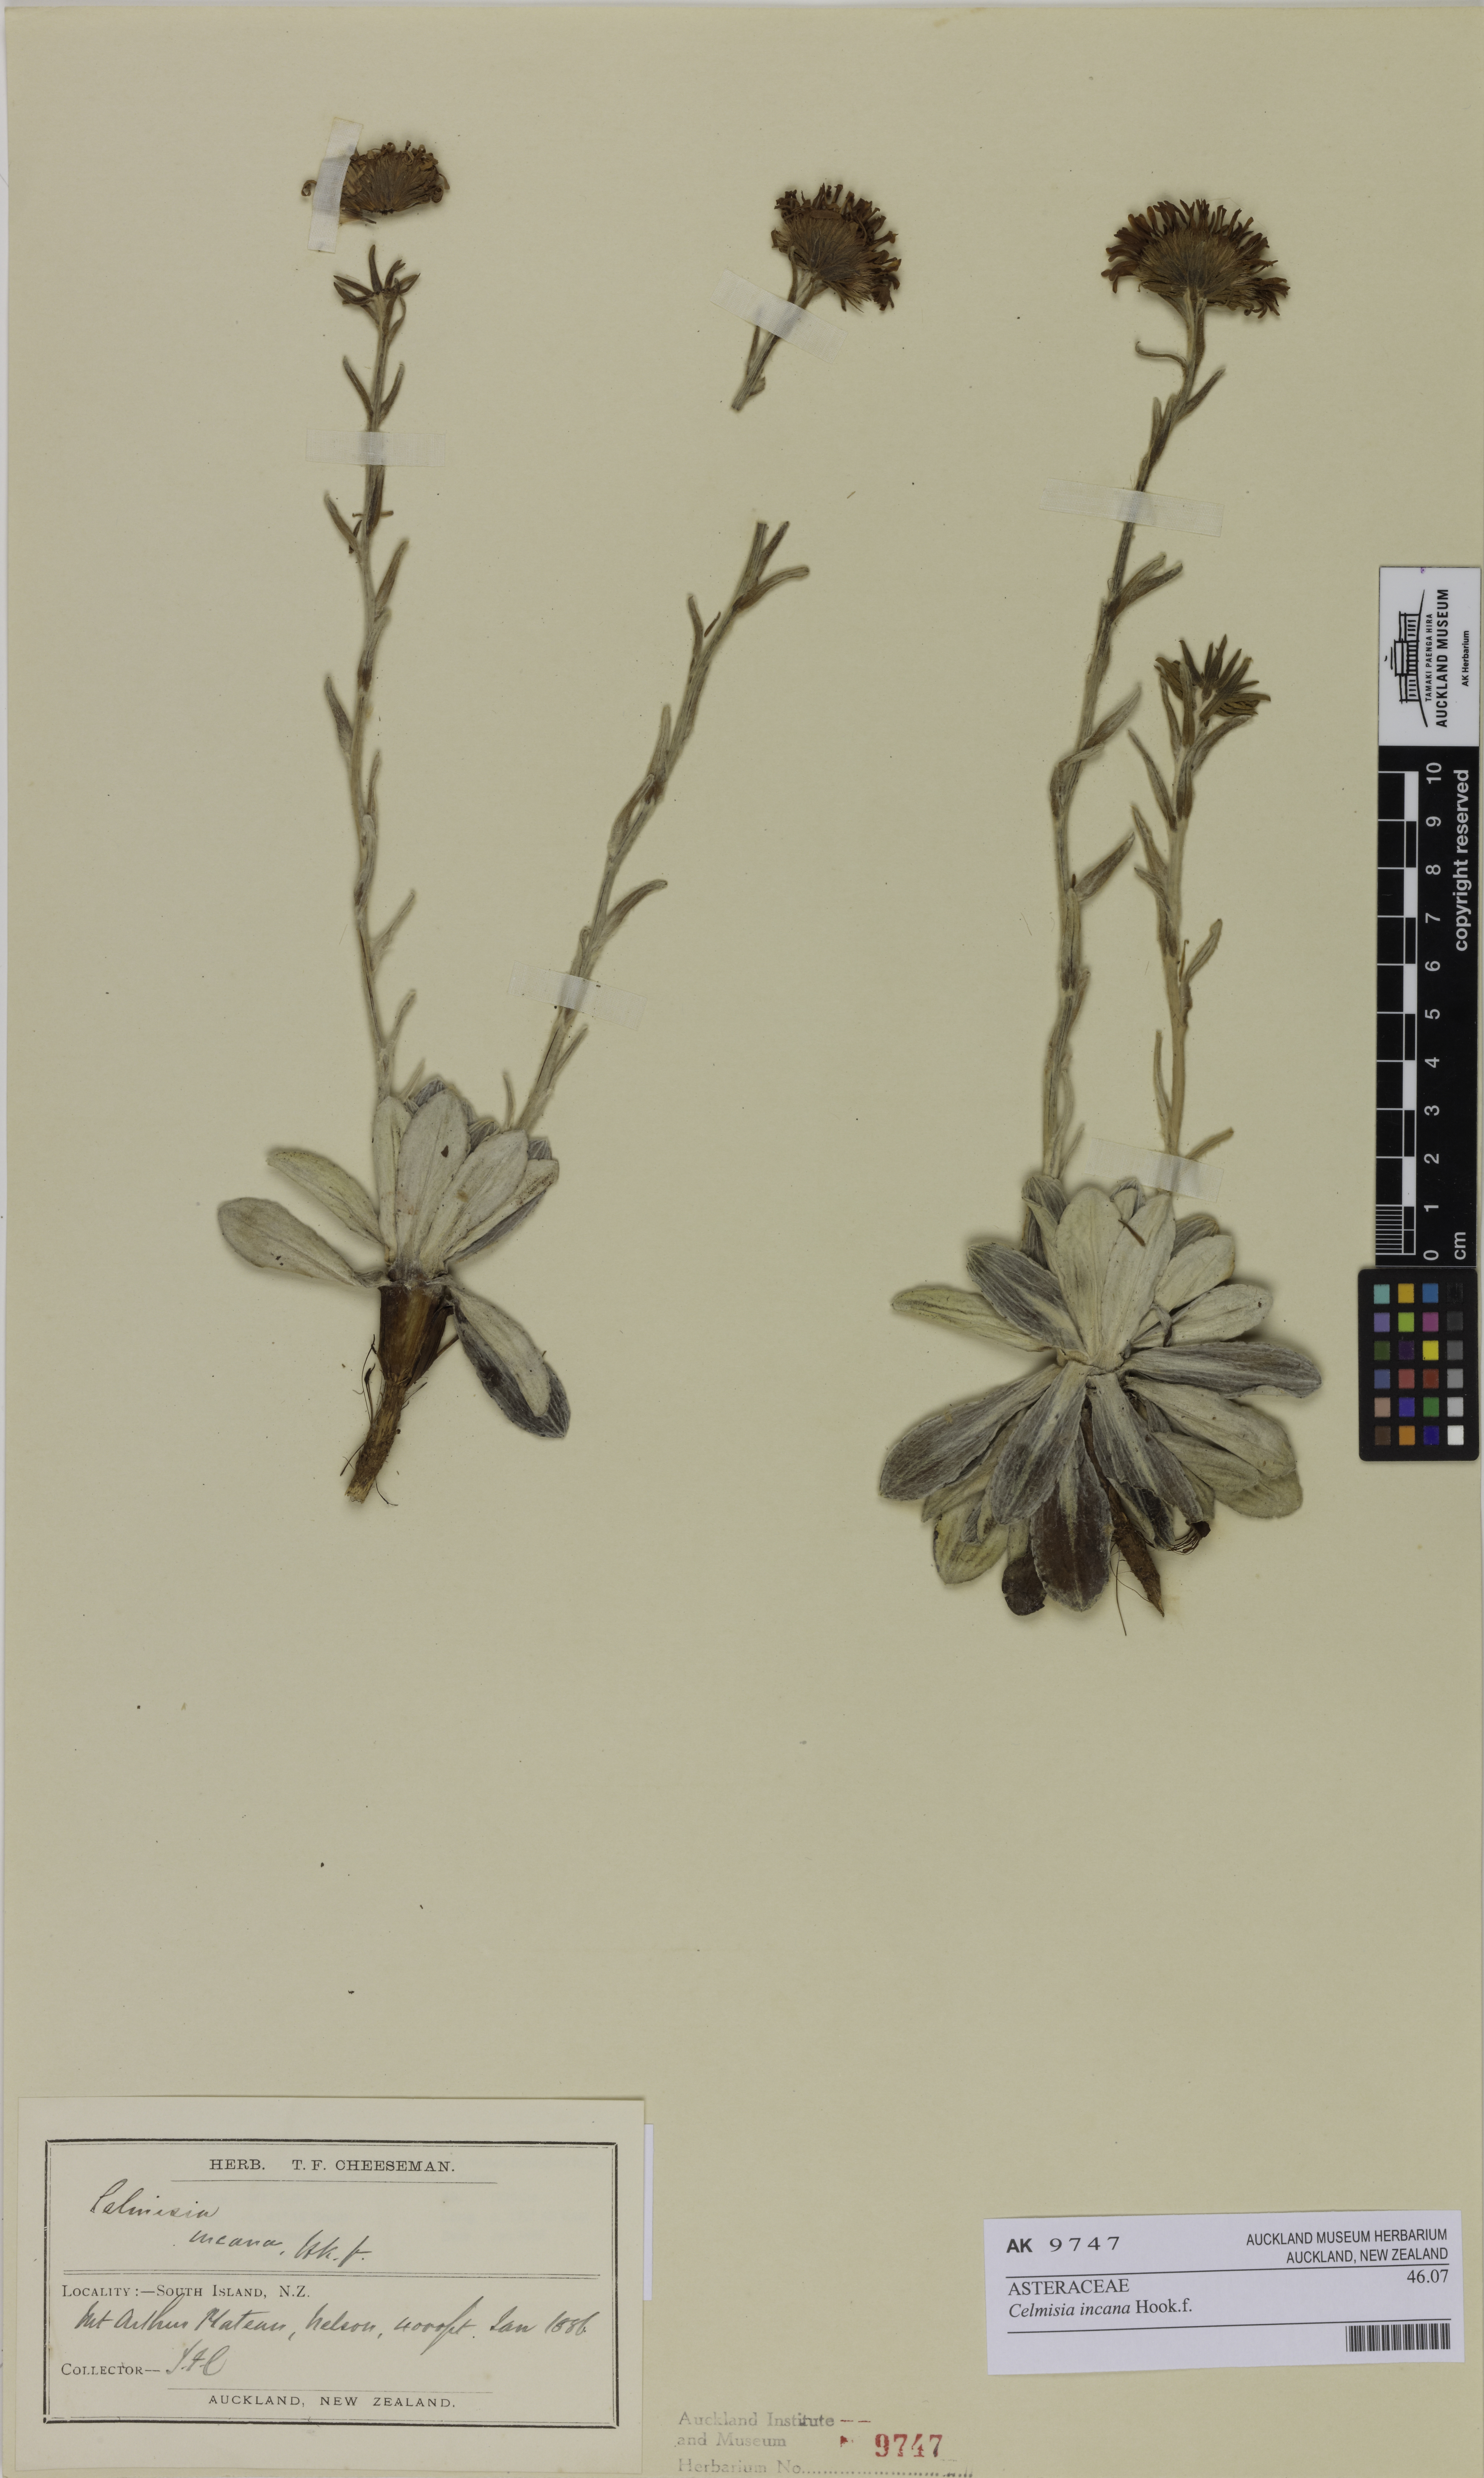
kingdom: Plantae
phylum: Tracheophyta
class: Magnoliopsida
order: Asterales
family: Asteraceae
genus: Celmisia
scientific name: Celmisia incana
